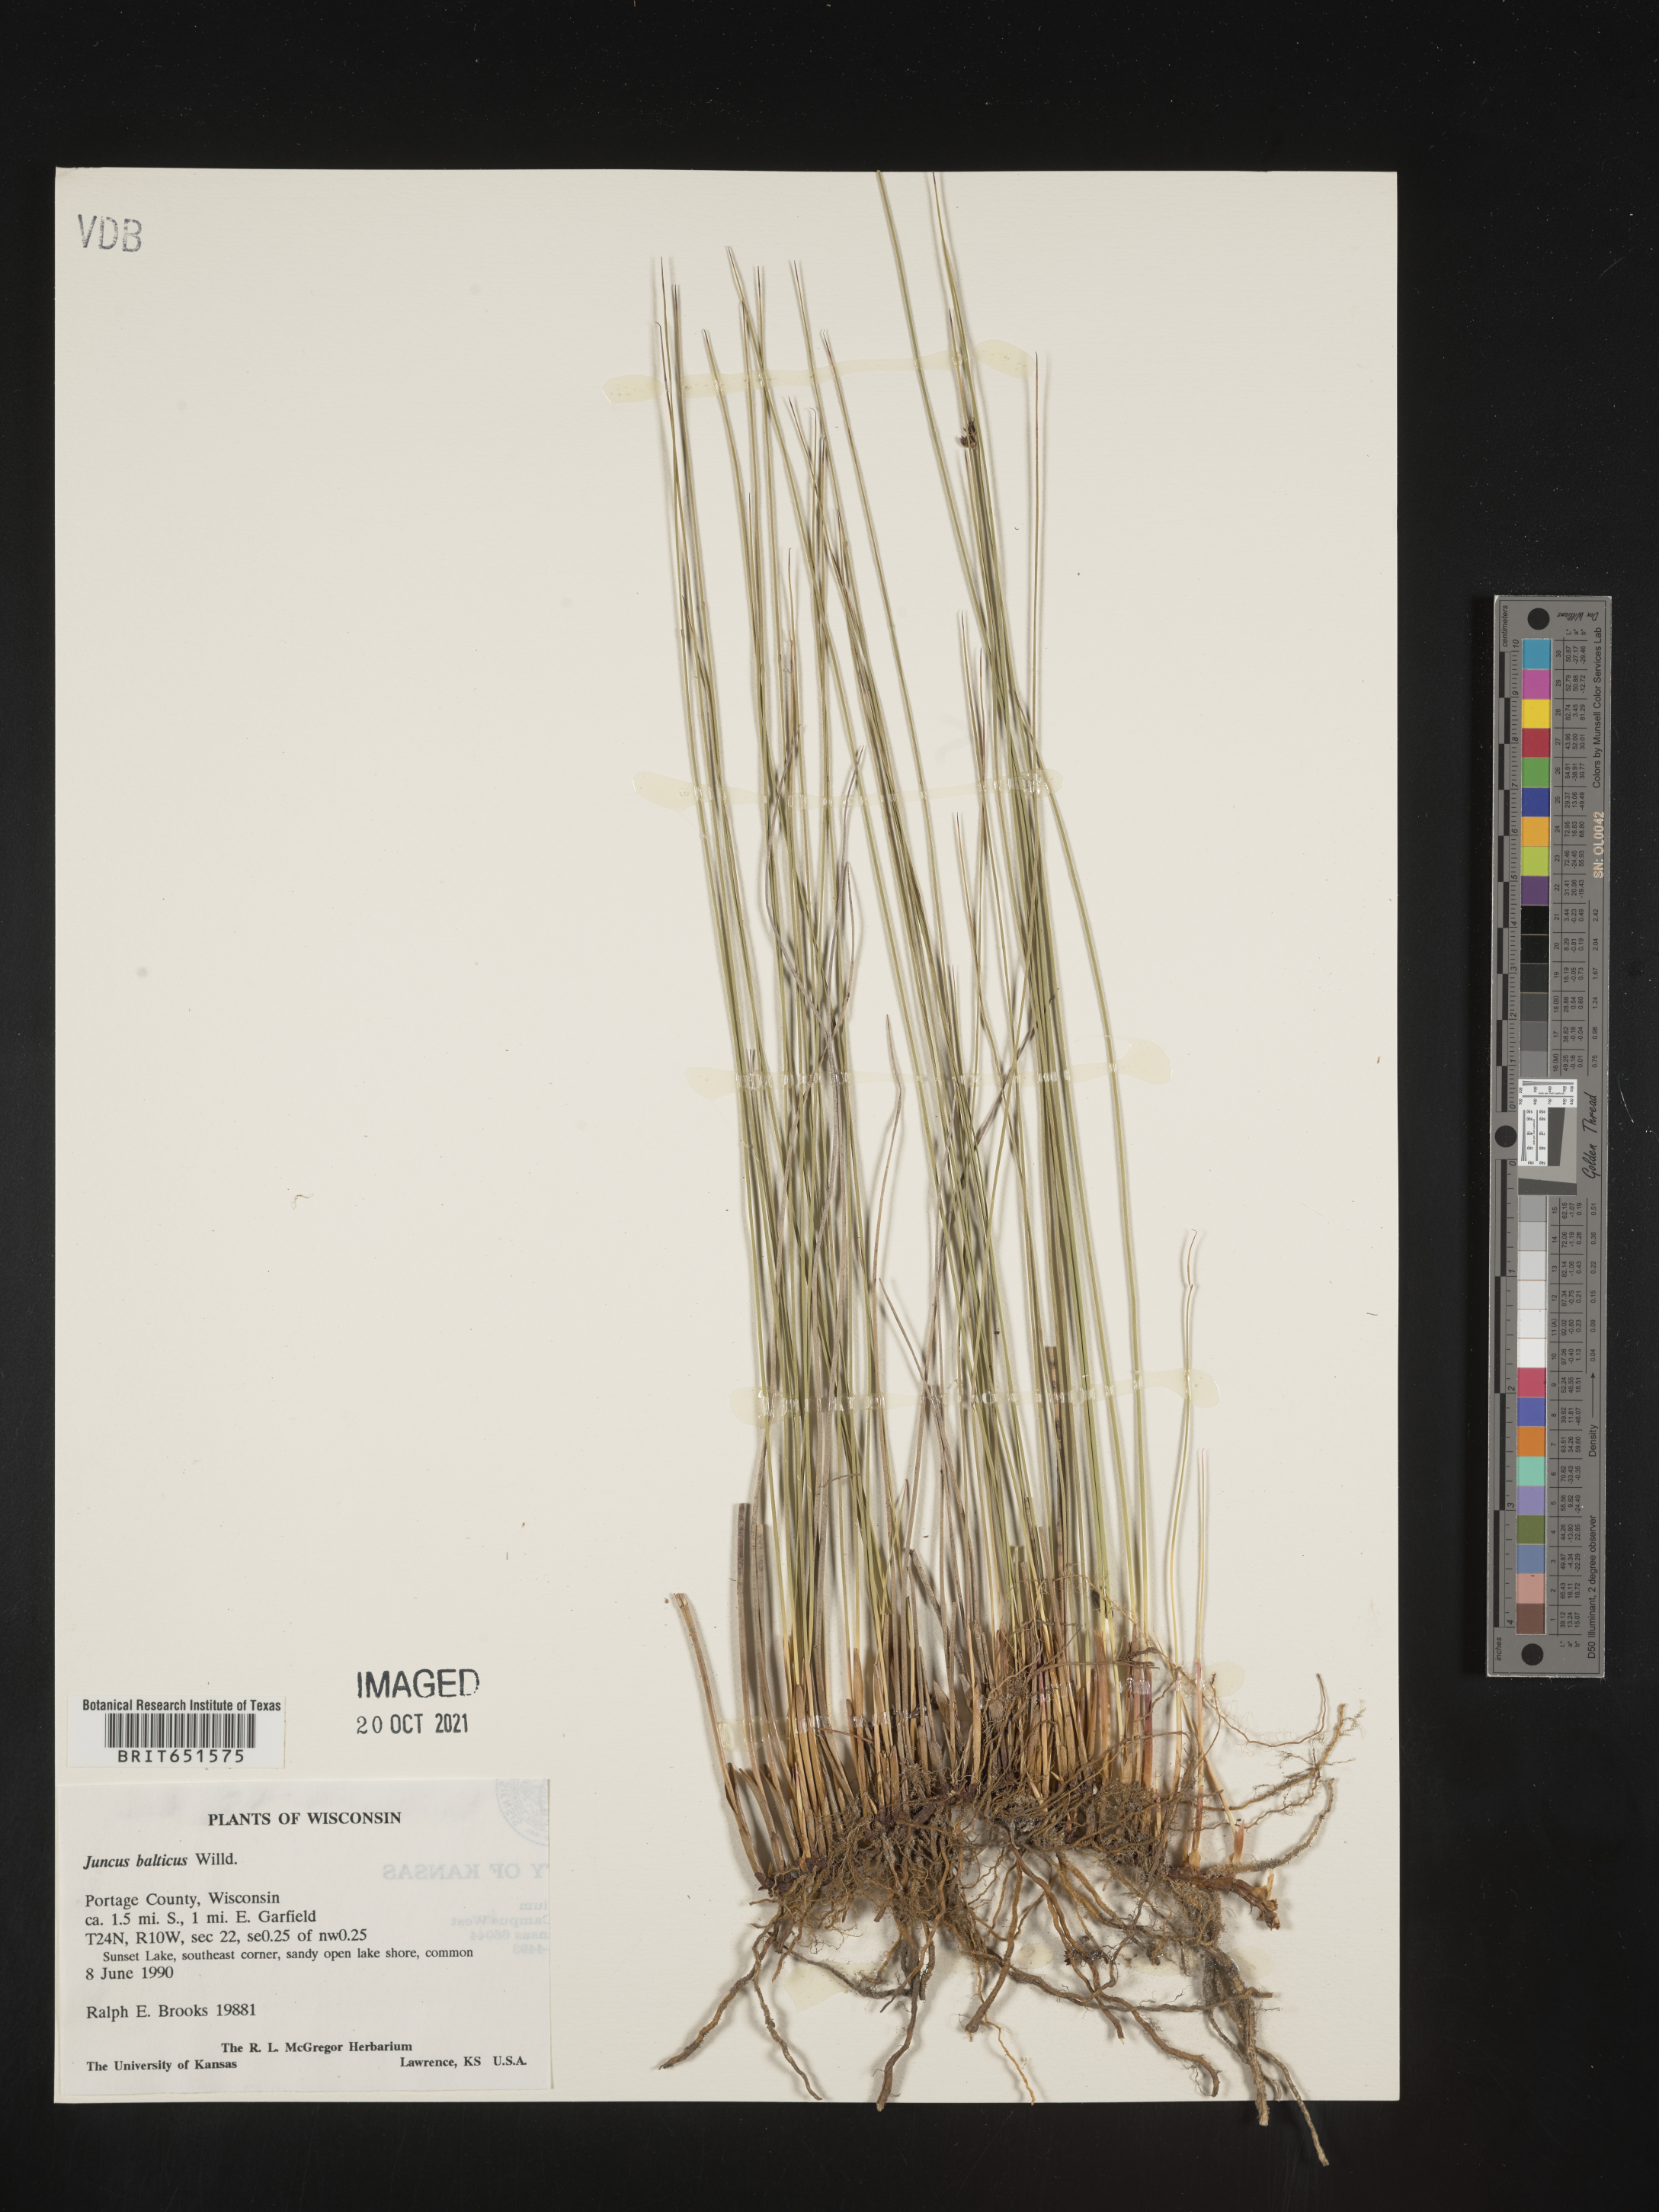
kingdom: Plantae
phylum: Tracheophyta
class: Liliopsida
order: Poales
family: Juncaceae
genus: Juncus
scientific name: Juncus balticus
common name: Baltic rush
